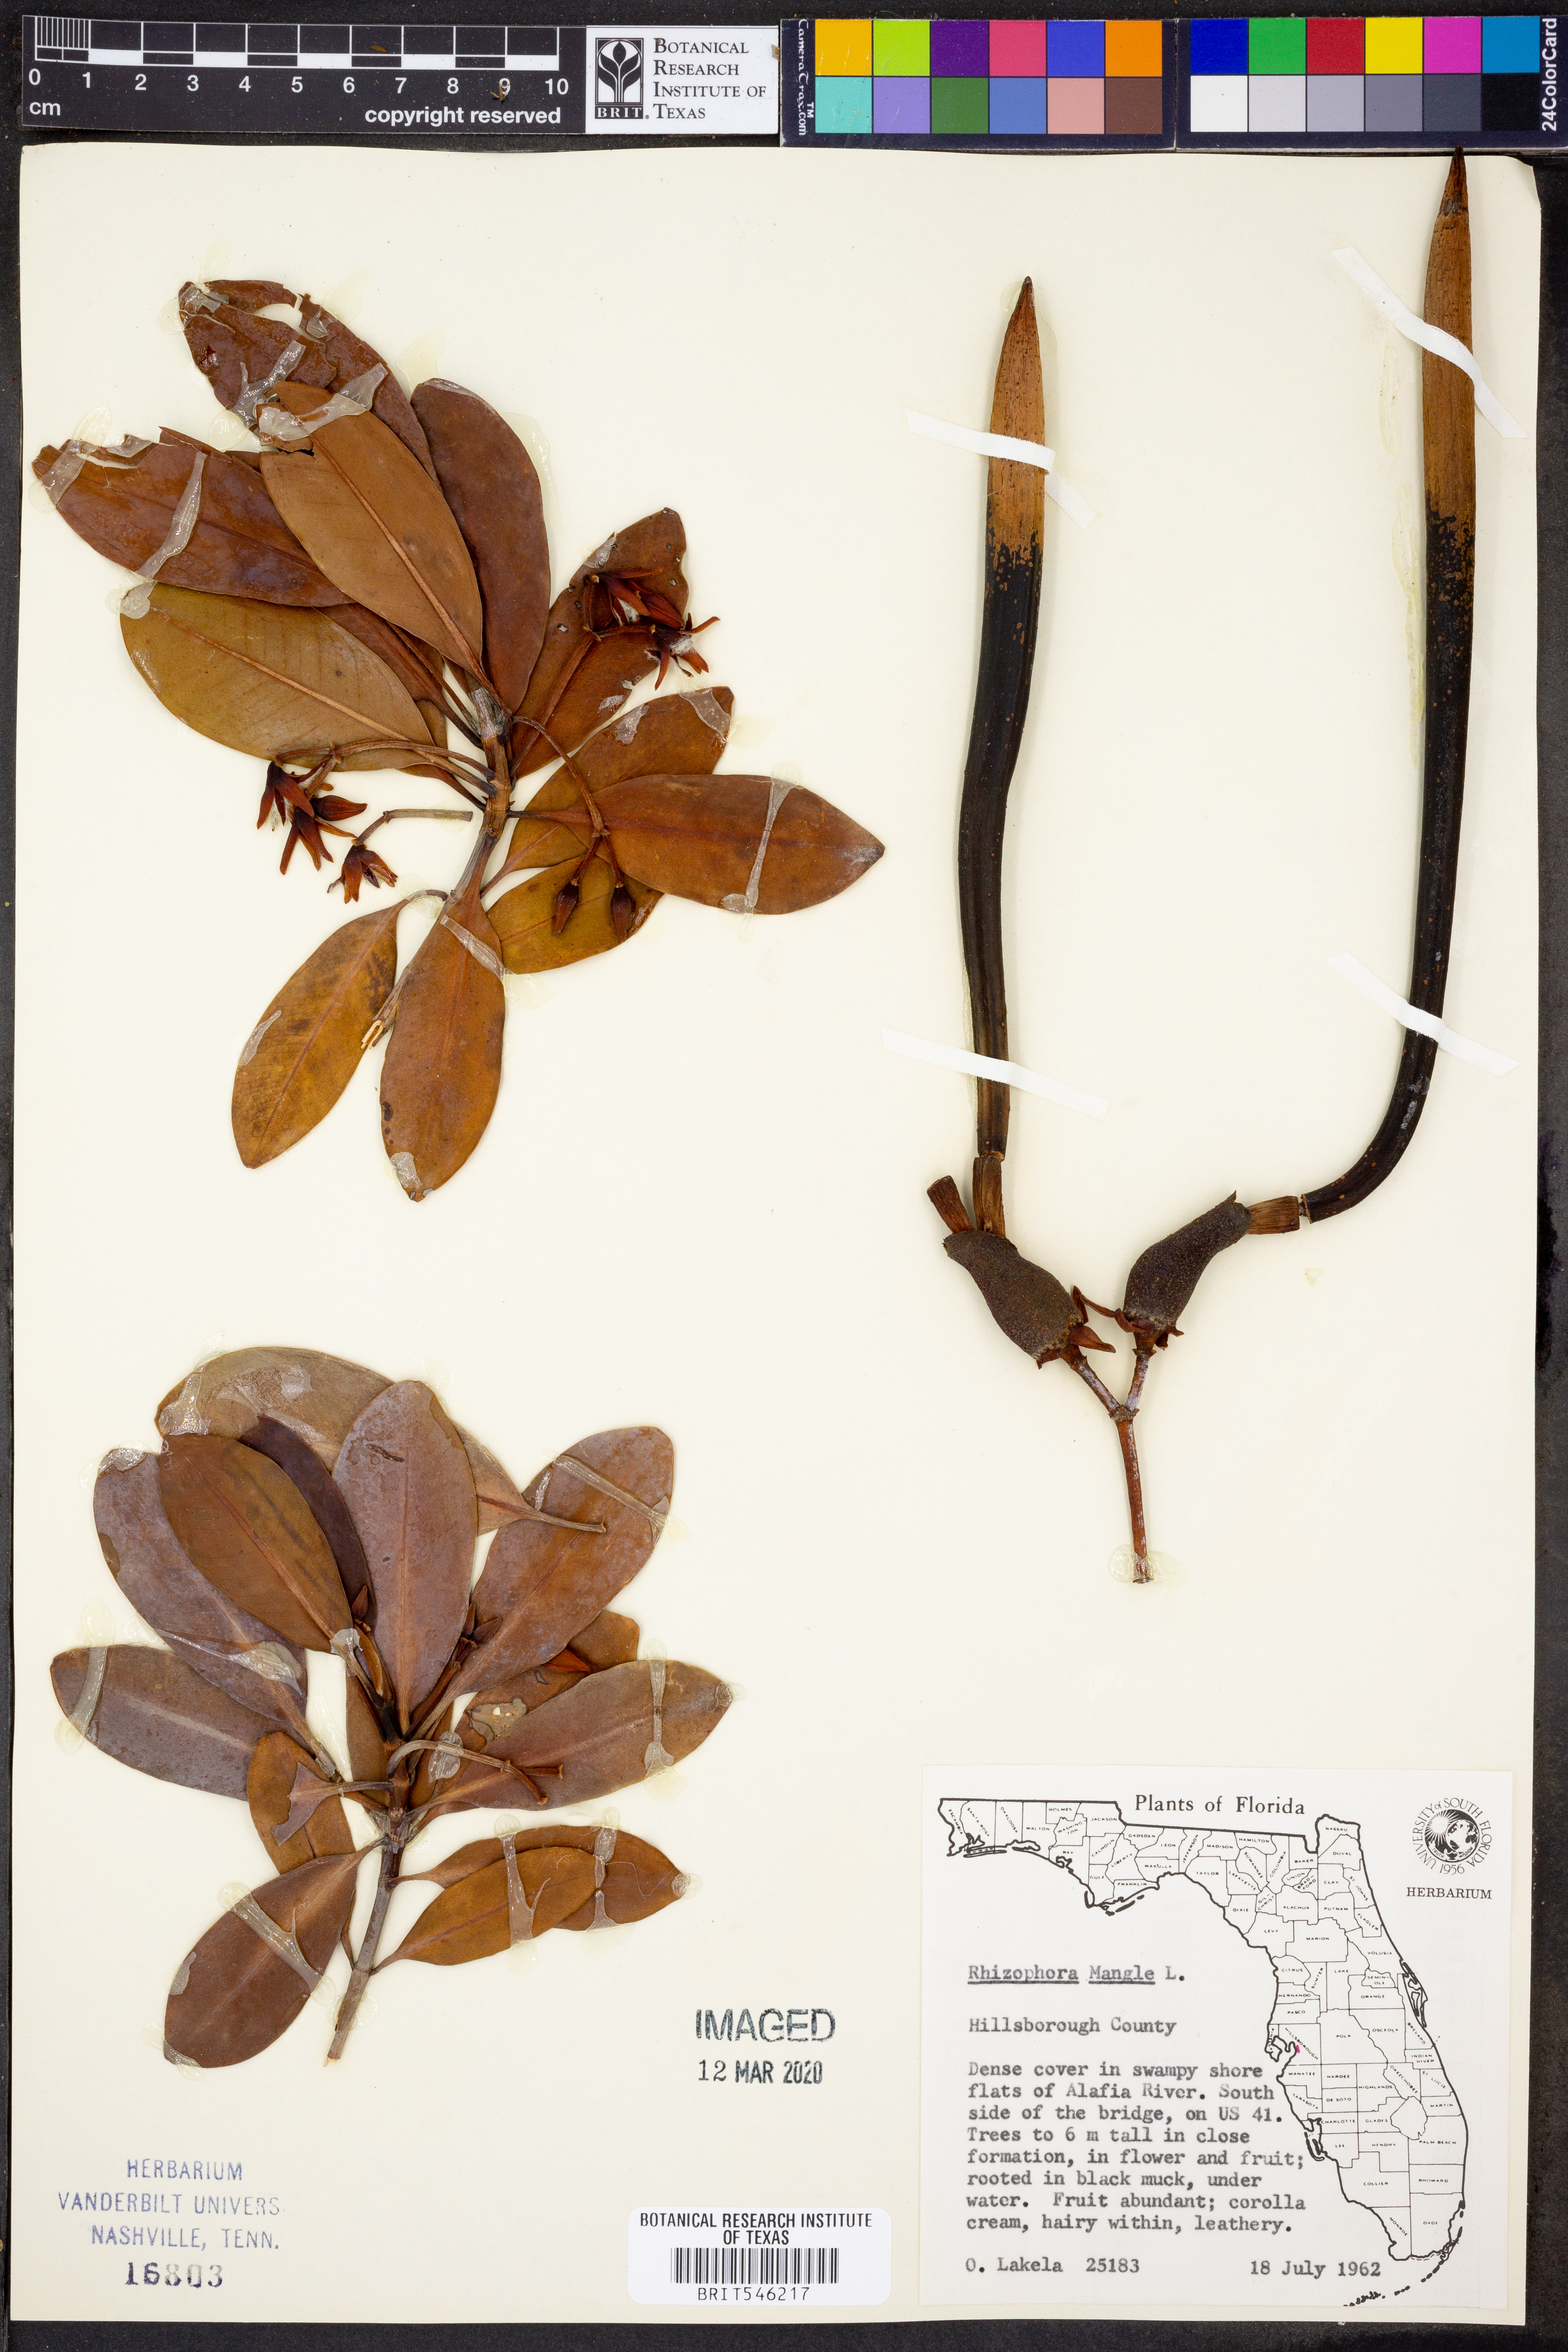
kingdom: Plantae
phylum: Tracheophyta
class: Magnoliopsida
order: Malpighiales
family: Rhizophoraceae
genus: Rhizophora
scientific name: Rhizophora mucronata
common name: Loop-root mangrove
